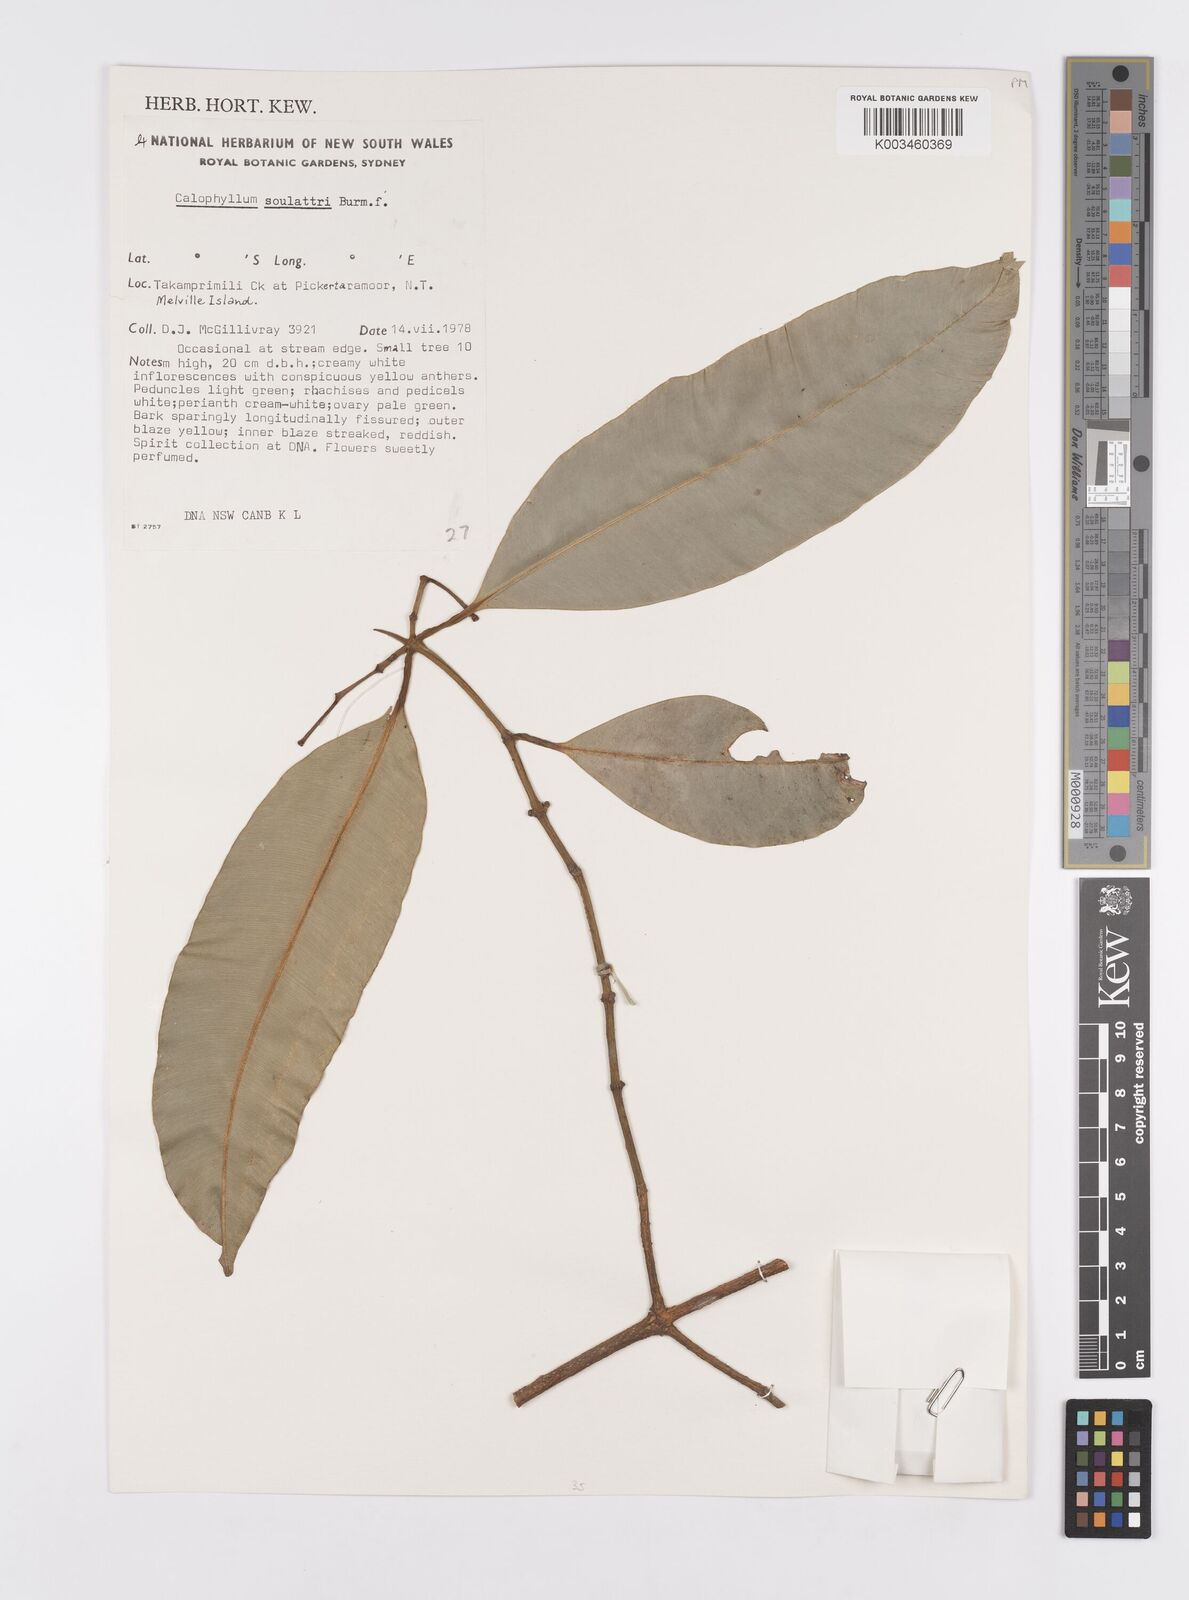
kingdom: Plantae
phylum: Tracheophyta
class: Magnoliopsida
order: Malpighiales
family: Calophyllaceae
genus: Calophyllum
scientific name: Calophyllum soulattri
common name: Bitangoor boonot
